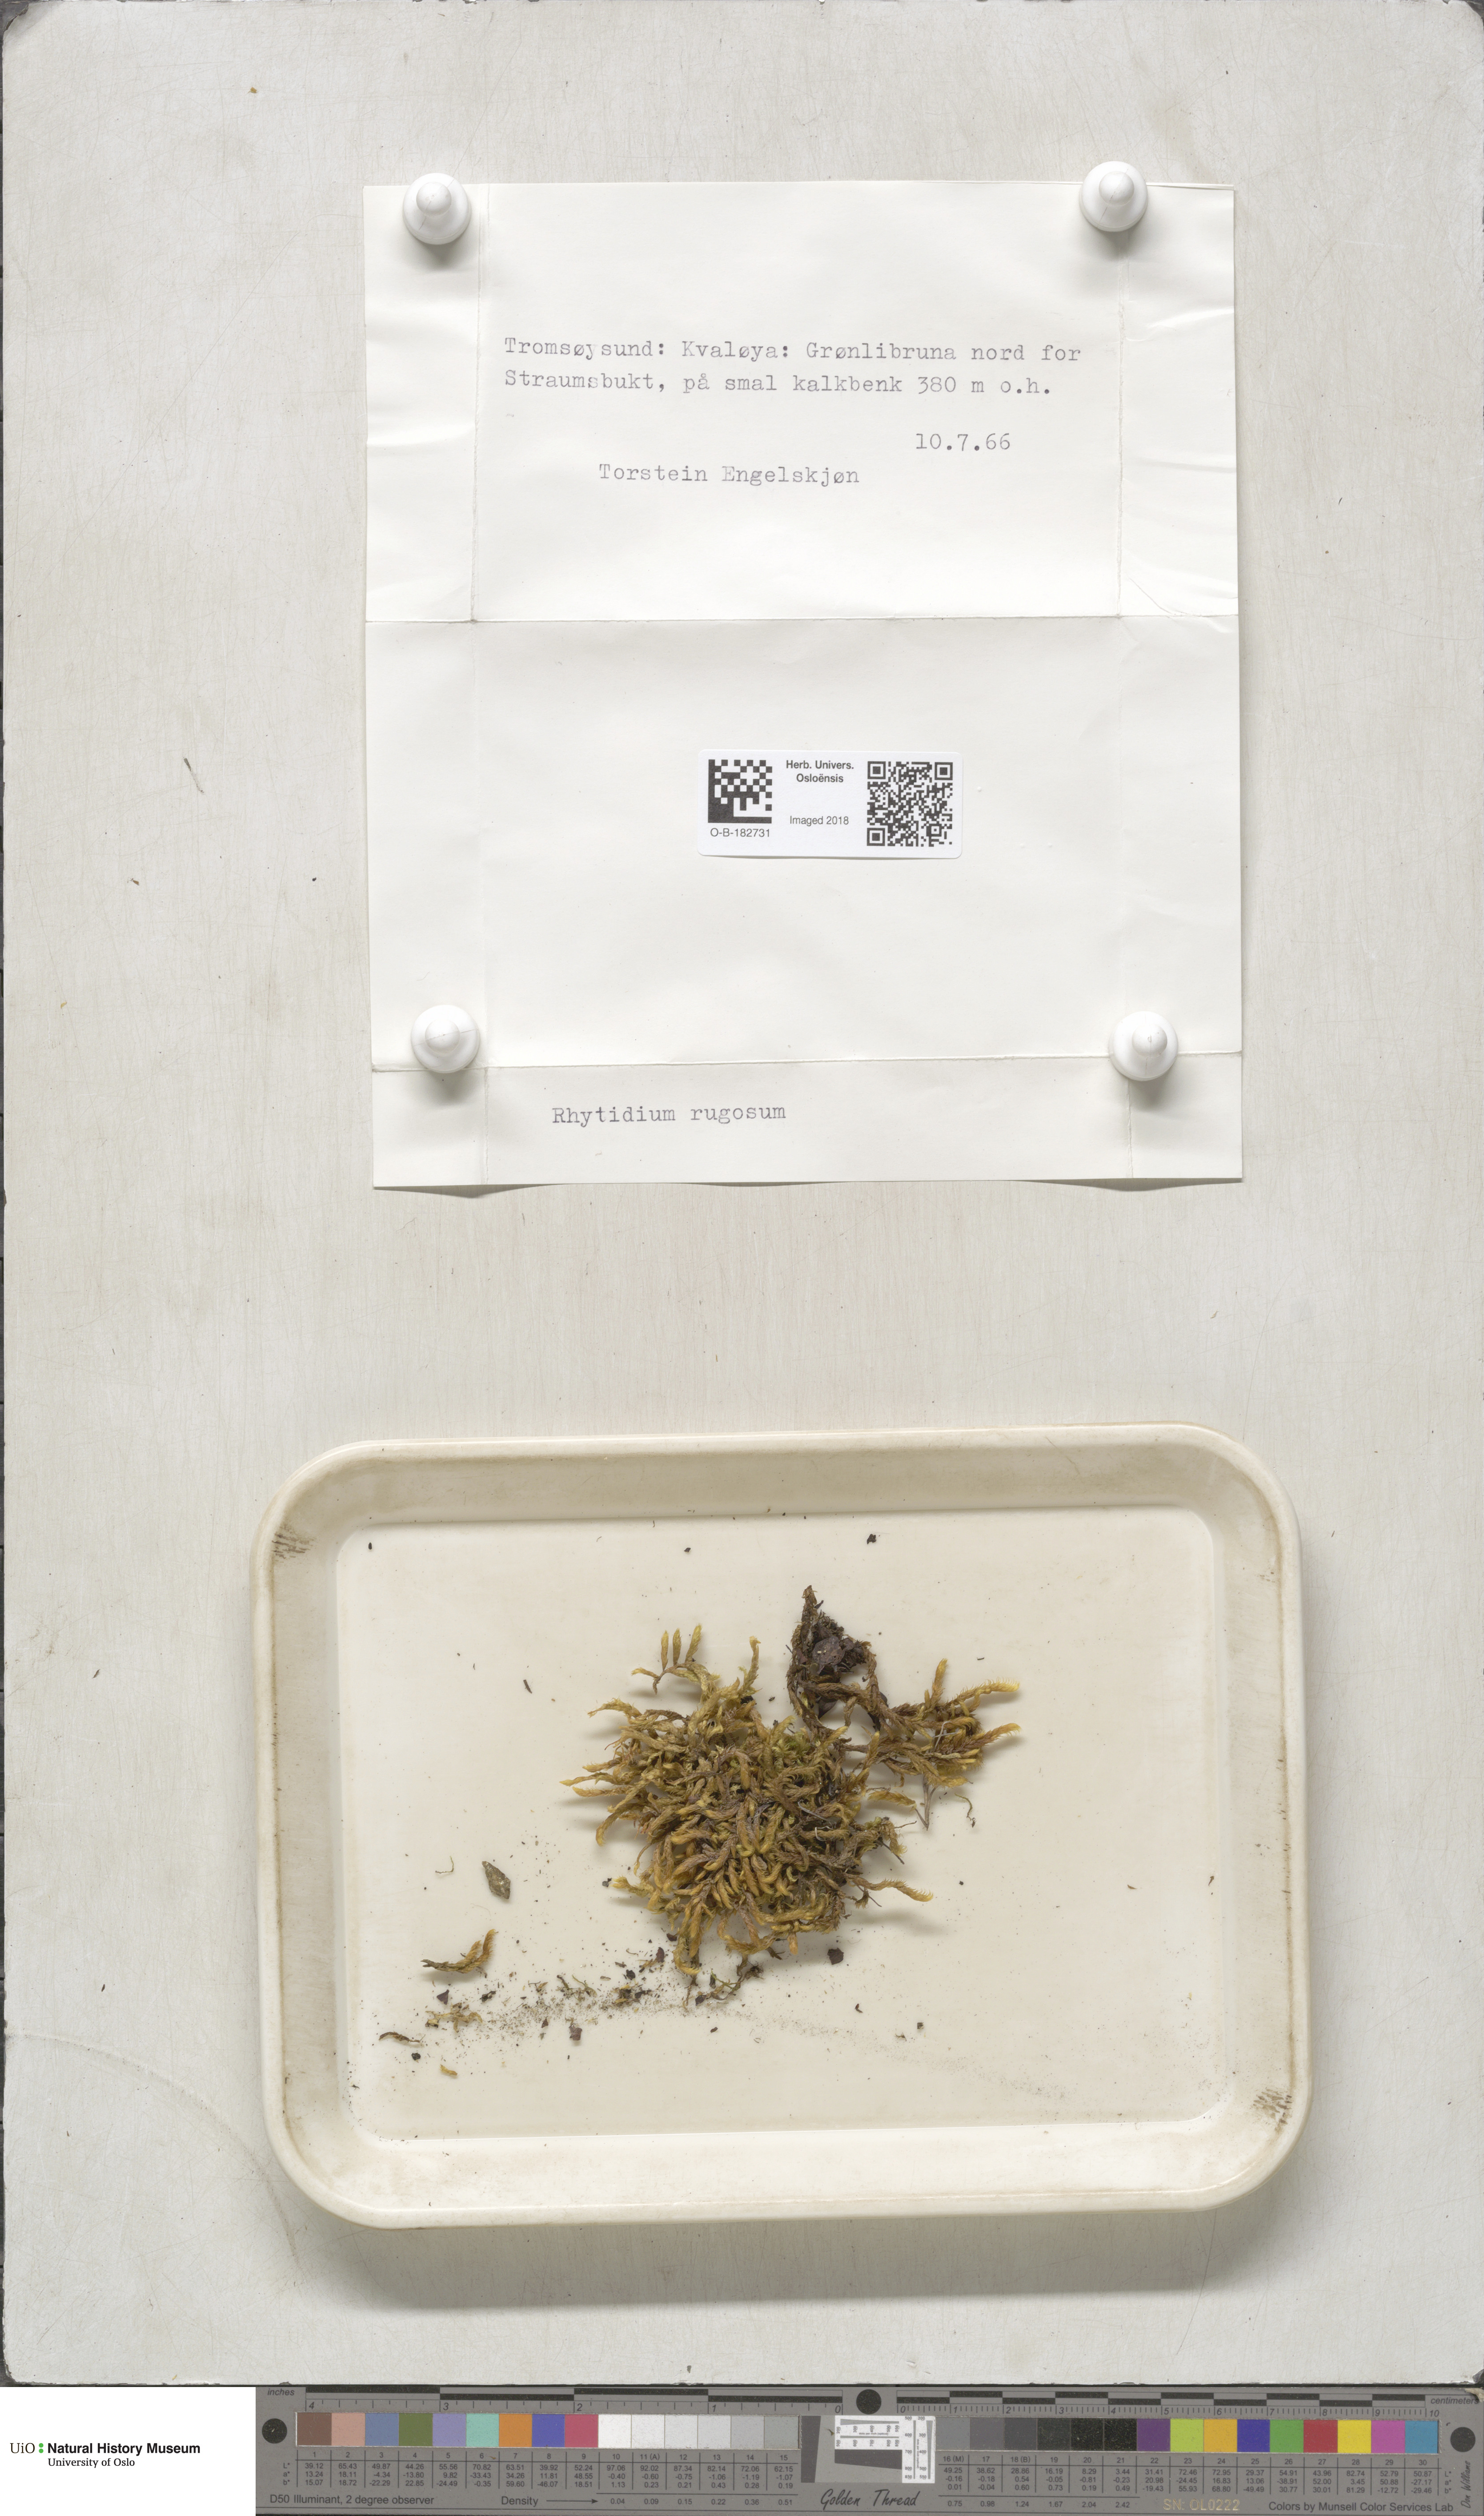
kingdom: Plantae
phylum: Bryophyta
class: Bryopsida
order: Hypnales
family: Rhytidiaceae
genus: Rhytidium
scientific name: Rhytidium rugosum
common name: Wrinkle-leaved moss
